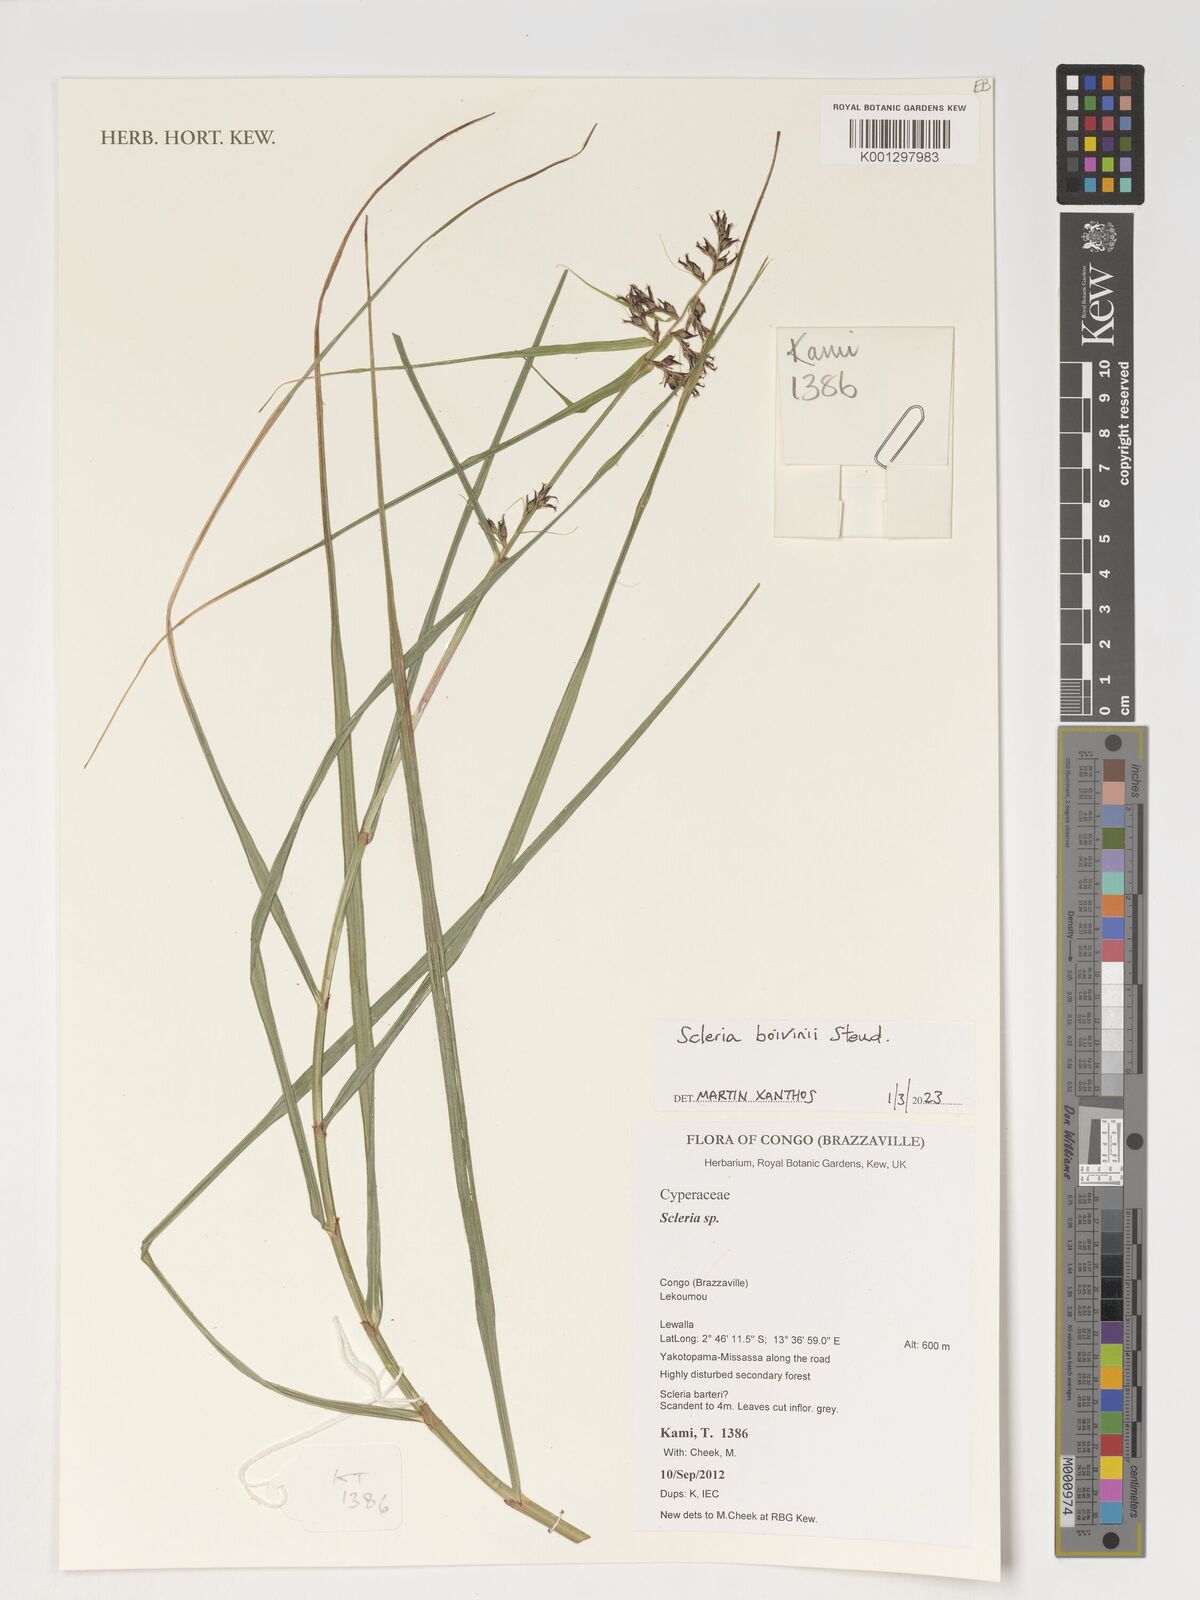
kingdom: Plantae
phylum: Tracheophyta
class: Liliopsida
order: Poales
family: Cyperaceae
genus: Scleria
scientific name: Scleria boivinii
